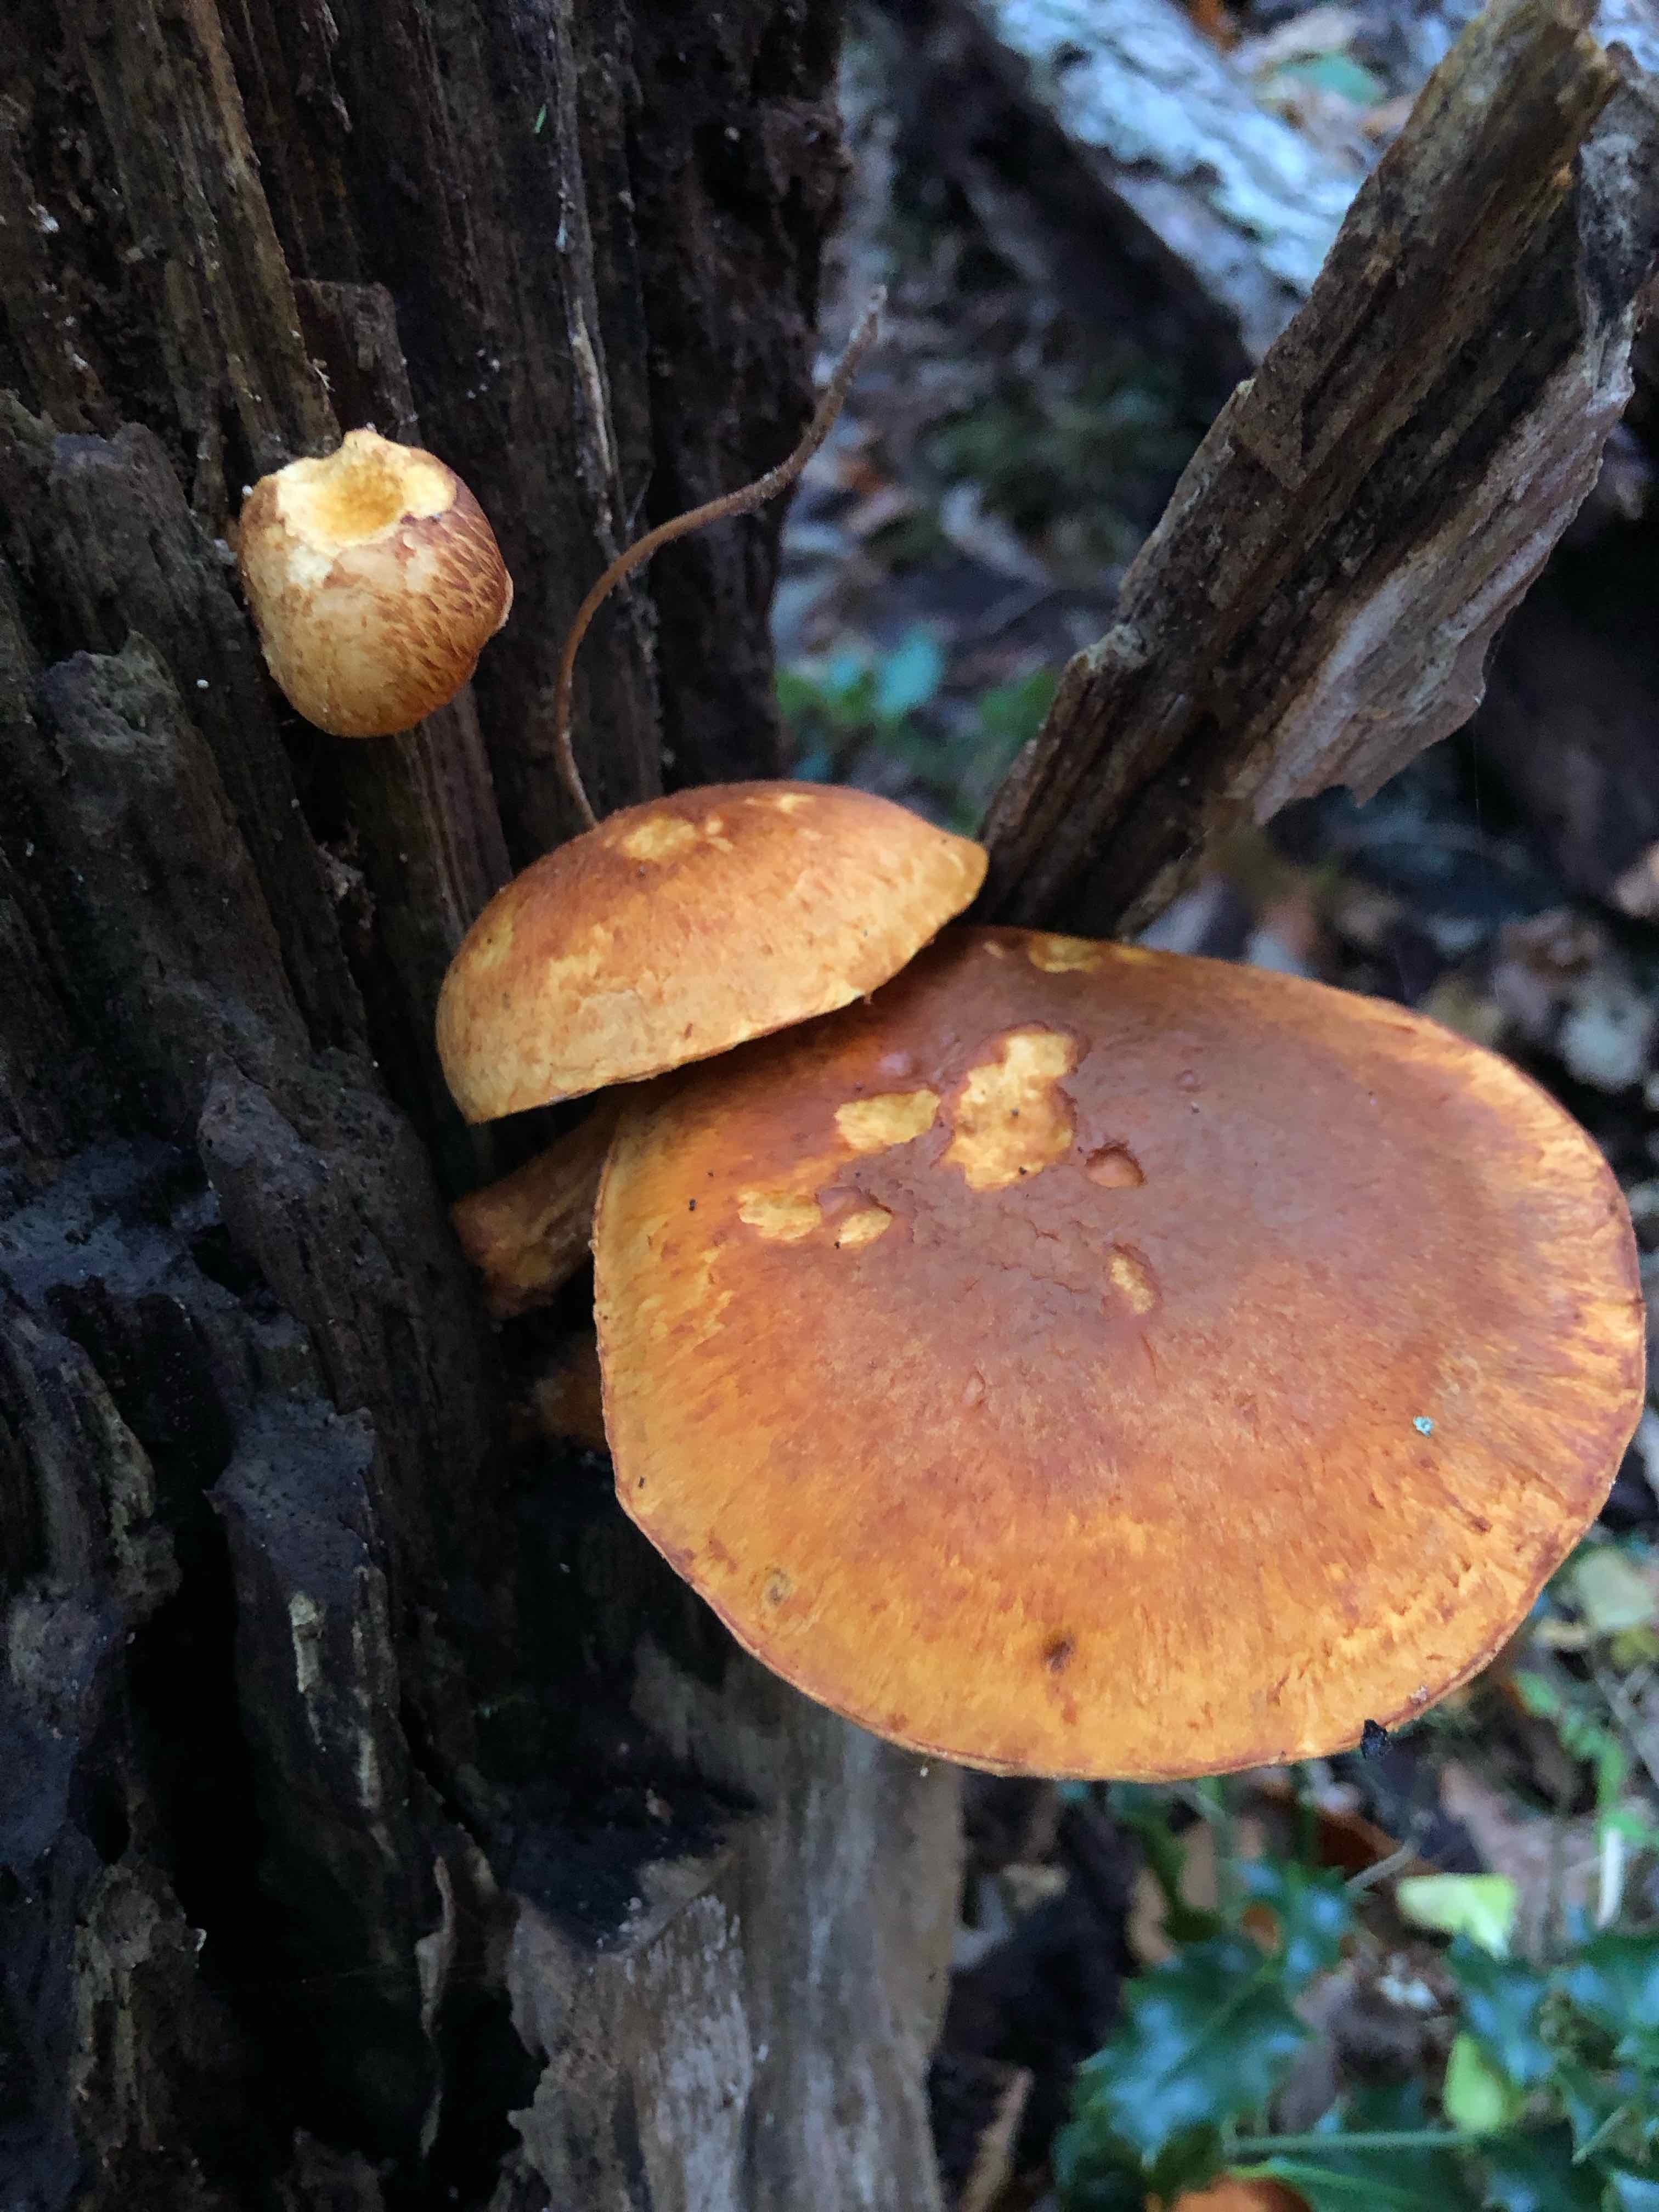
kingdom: Fungi
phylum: Basidiomycota
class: Agaricomycetes
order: Agaricales
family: Hymenogastraceae
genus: Gymnopilus
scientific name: Gymnopilus spectabilis
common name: fibret flammehat
